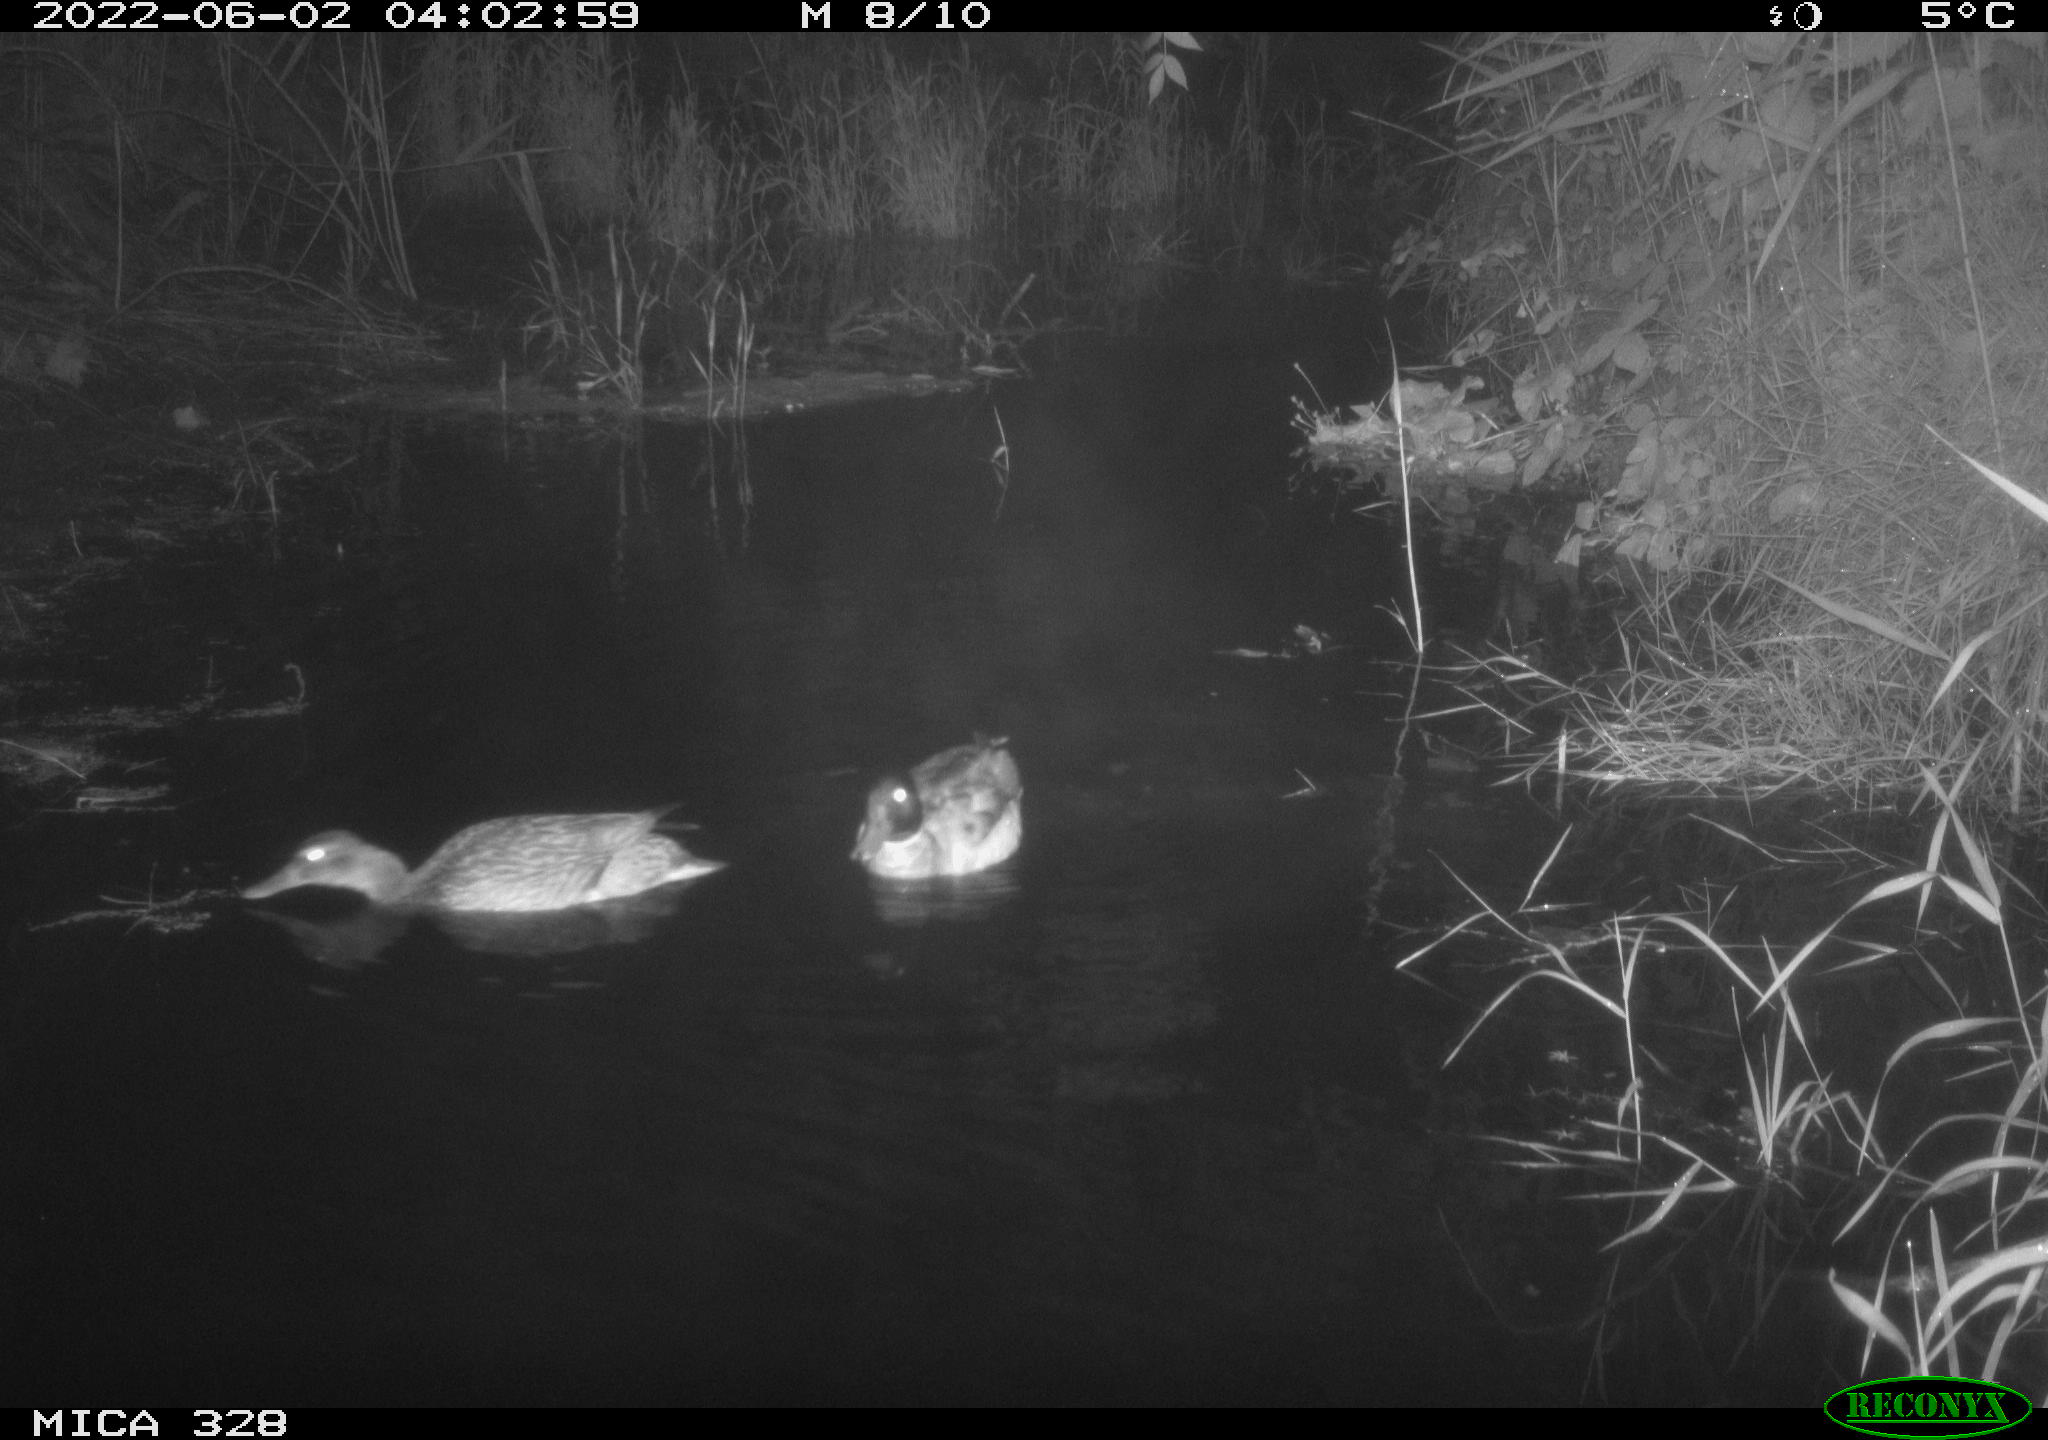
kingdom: Animalia
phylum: Chordata
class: Aves
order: Anseriformes
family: Anatidae
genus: Anas
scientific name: Anas
